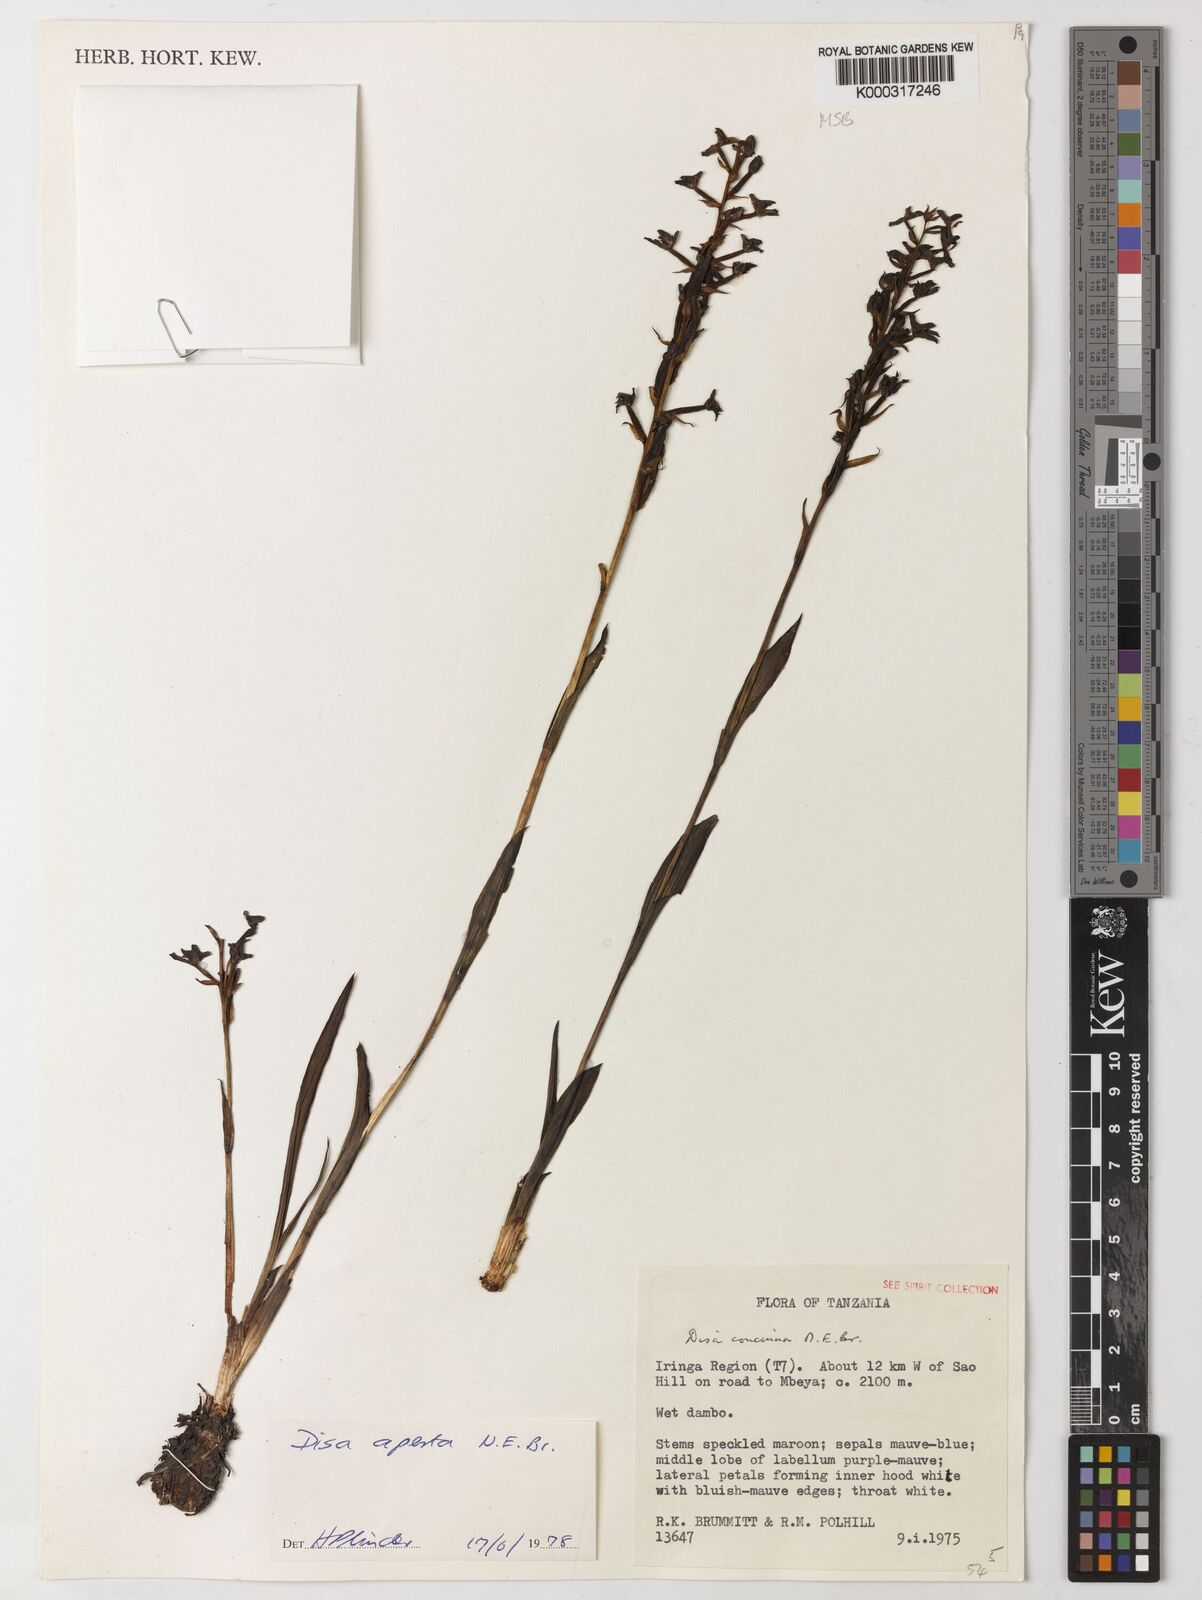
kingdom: Plantae
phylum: Tracheophyta
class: Liliopsida
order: Asparagales
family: Orchidaceae
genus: Disa
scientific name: Disa aperta
